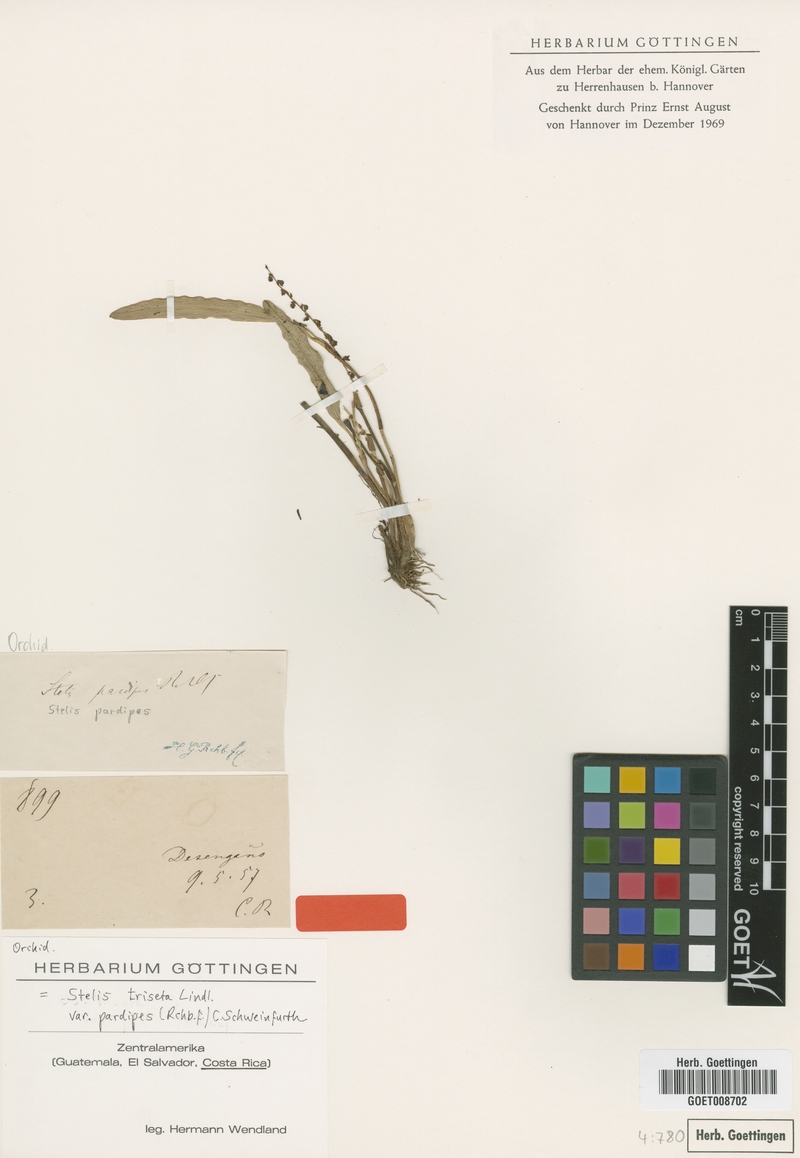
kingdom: Plantae
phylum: Tracheophyta
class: Liliopsida
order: Asparagales
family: Orchidaceae
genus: Stelis
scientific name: Stelis triseta
